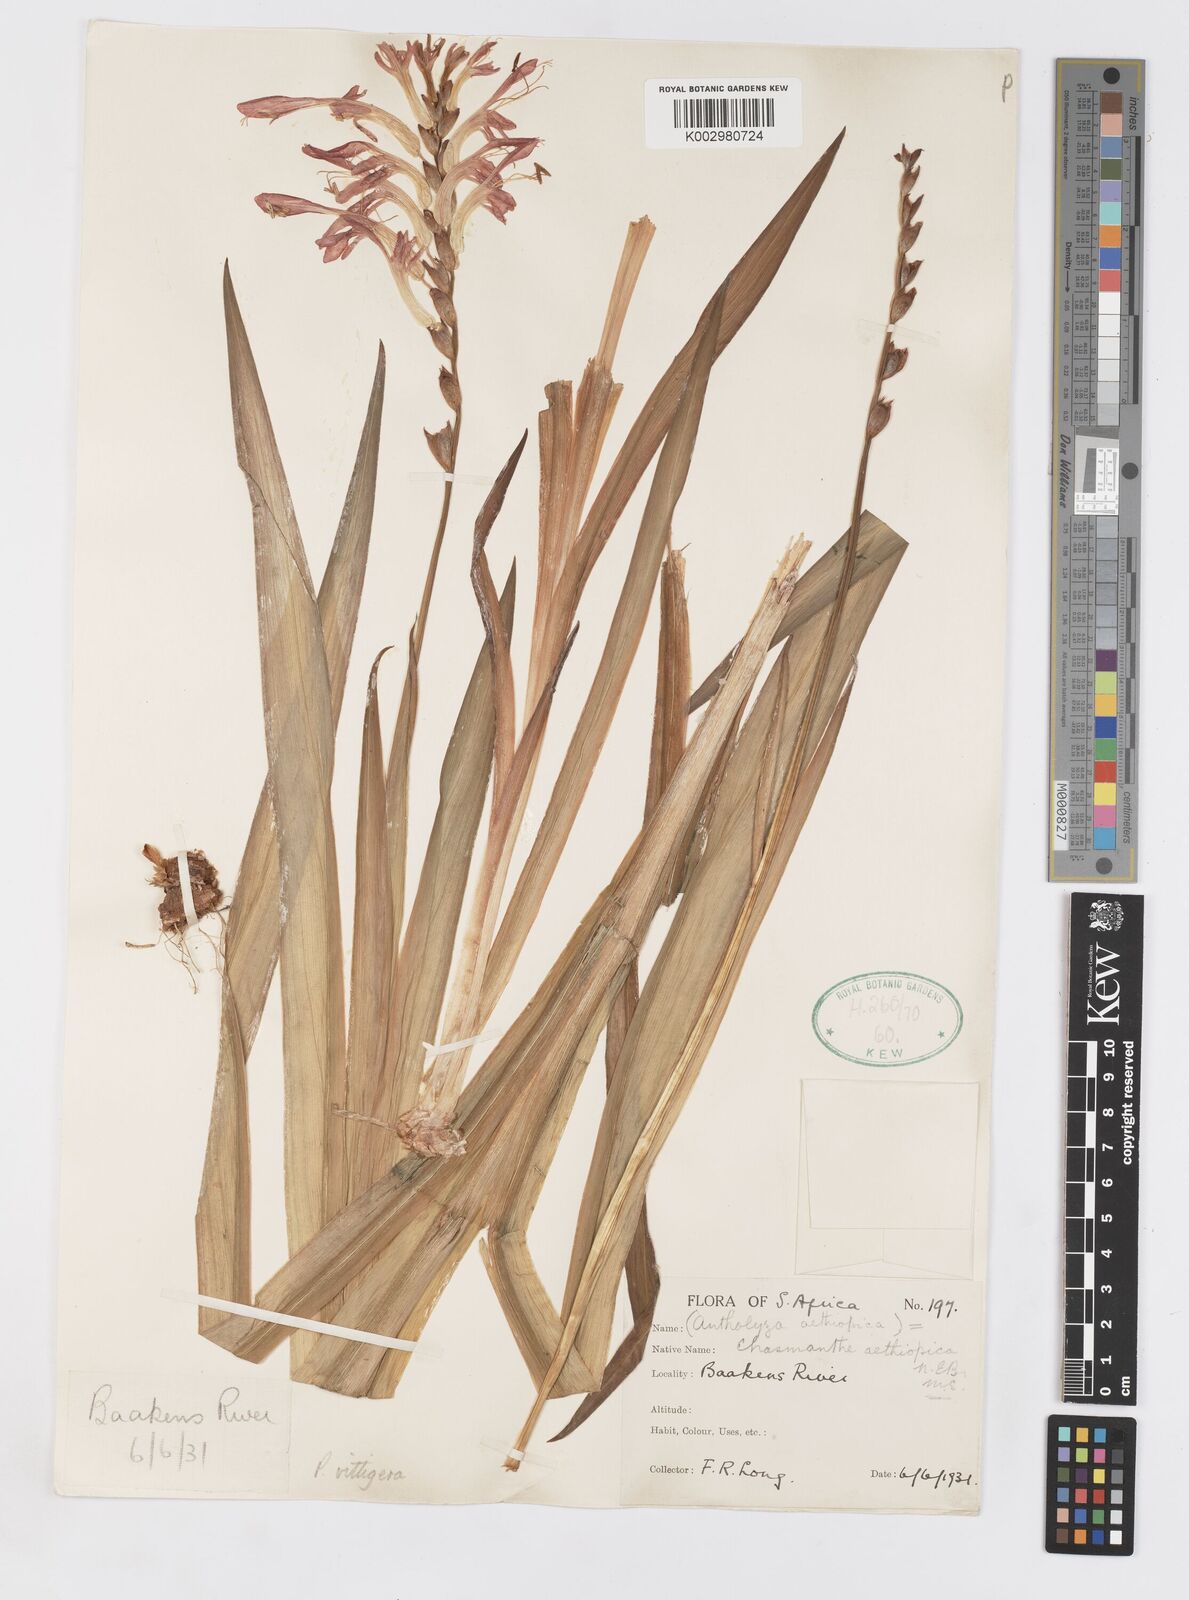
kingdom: Plantae
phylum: Tracheophyta
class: Liliopsida
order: Asparagales
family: Iridaceae
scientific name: Iridaceae
